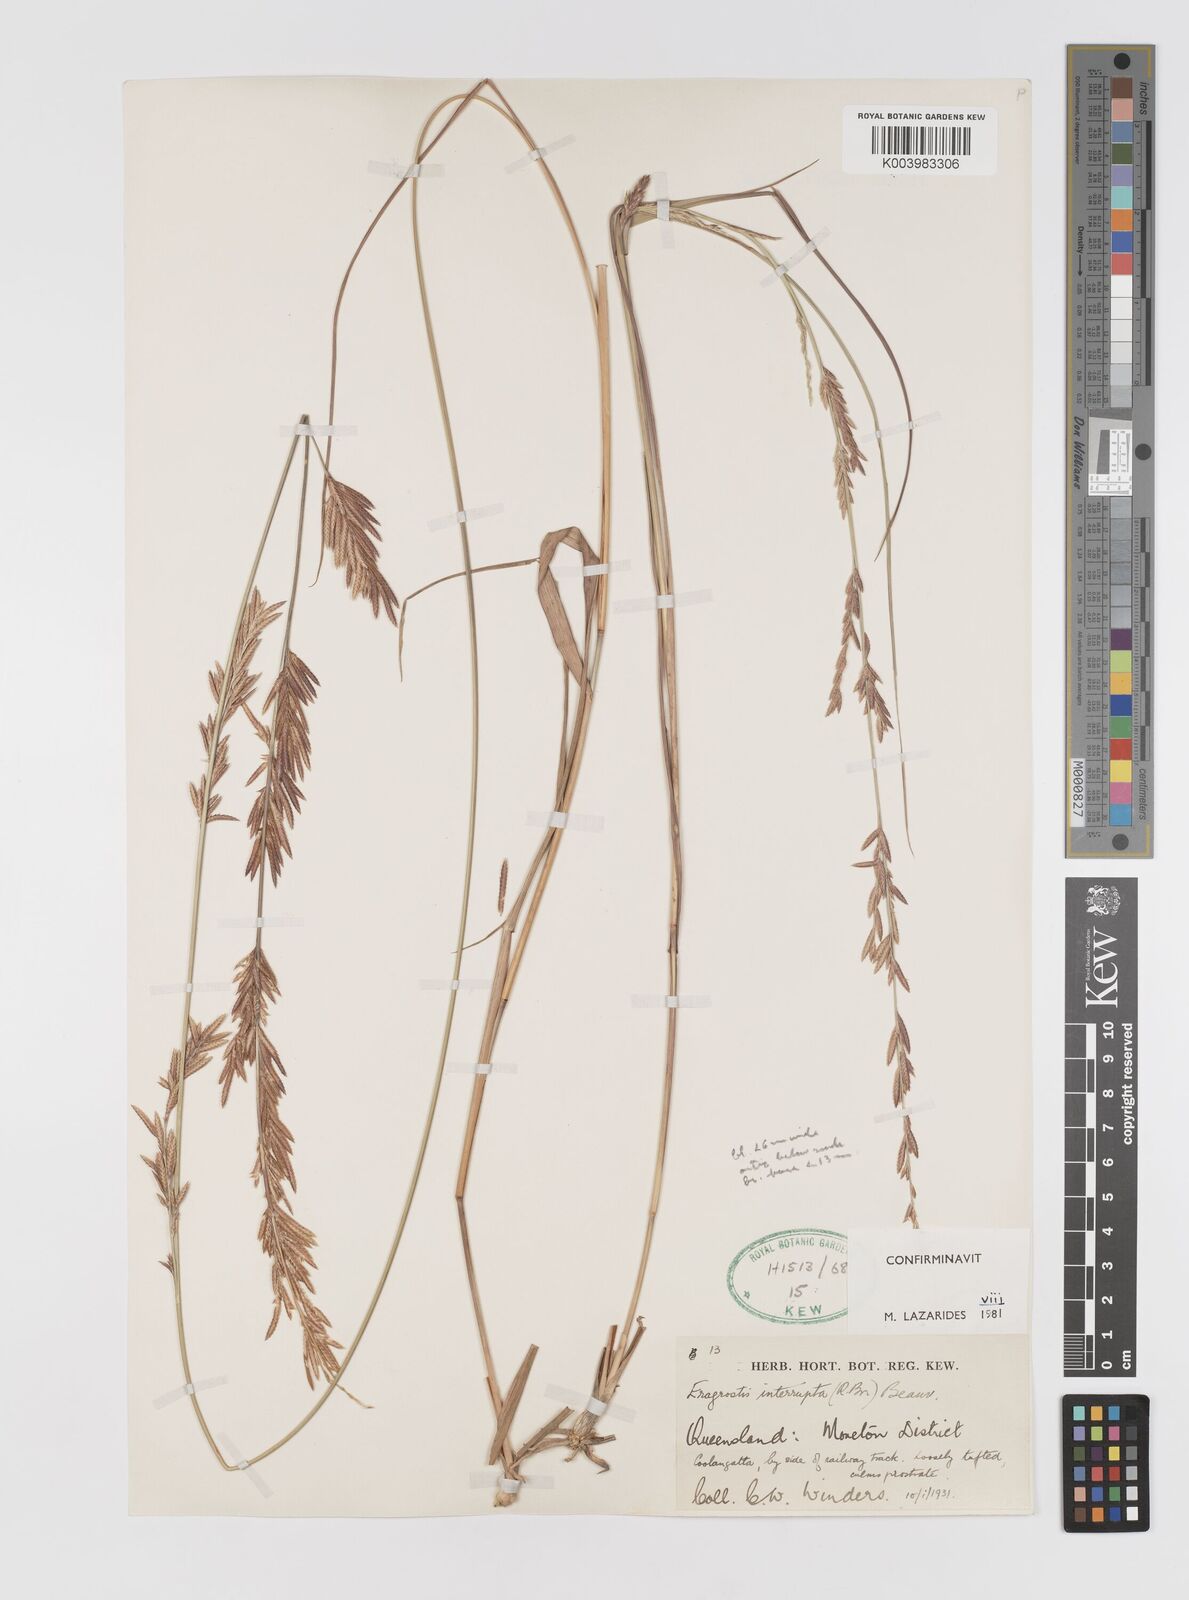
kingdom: Plantae
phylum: Tracheophyta
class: Liliopsida
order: Poales
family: Poaceae
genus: Eragrostis
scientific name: Eragrostis interrupta
